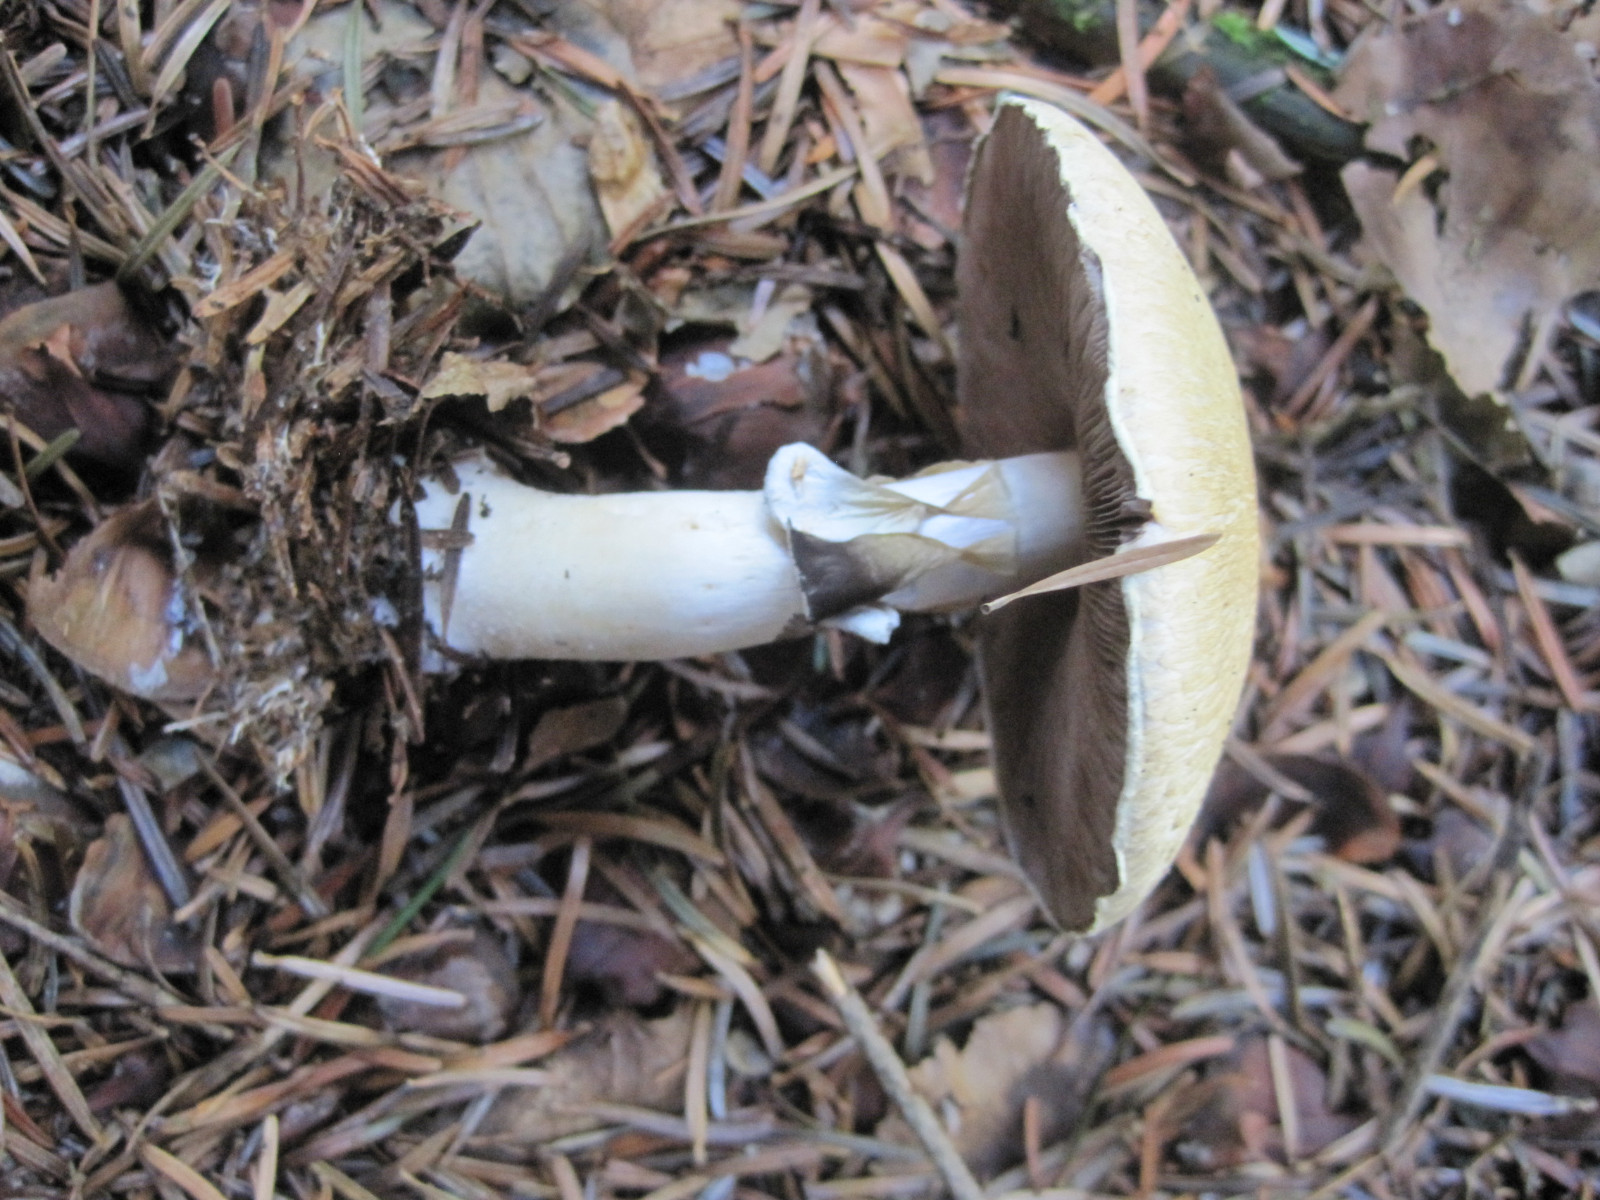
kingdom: Fungi
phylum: Basidiomycota
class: Agaricomycetes
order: Agaricales
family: Agaricaceae
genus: Agaricus
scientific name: Agaricus sylvicola
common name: gulhvid champignon
